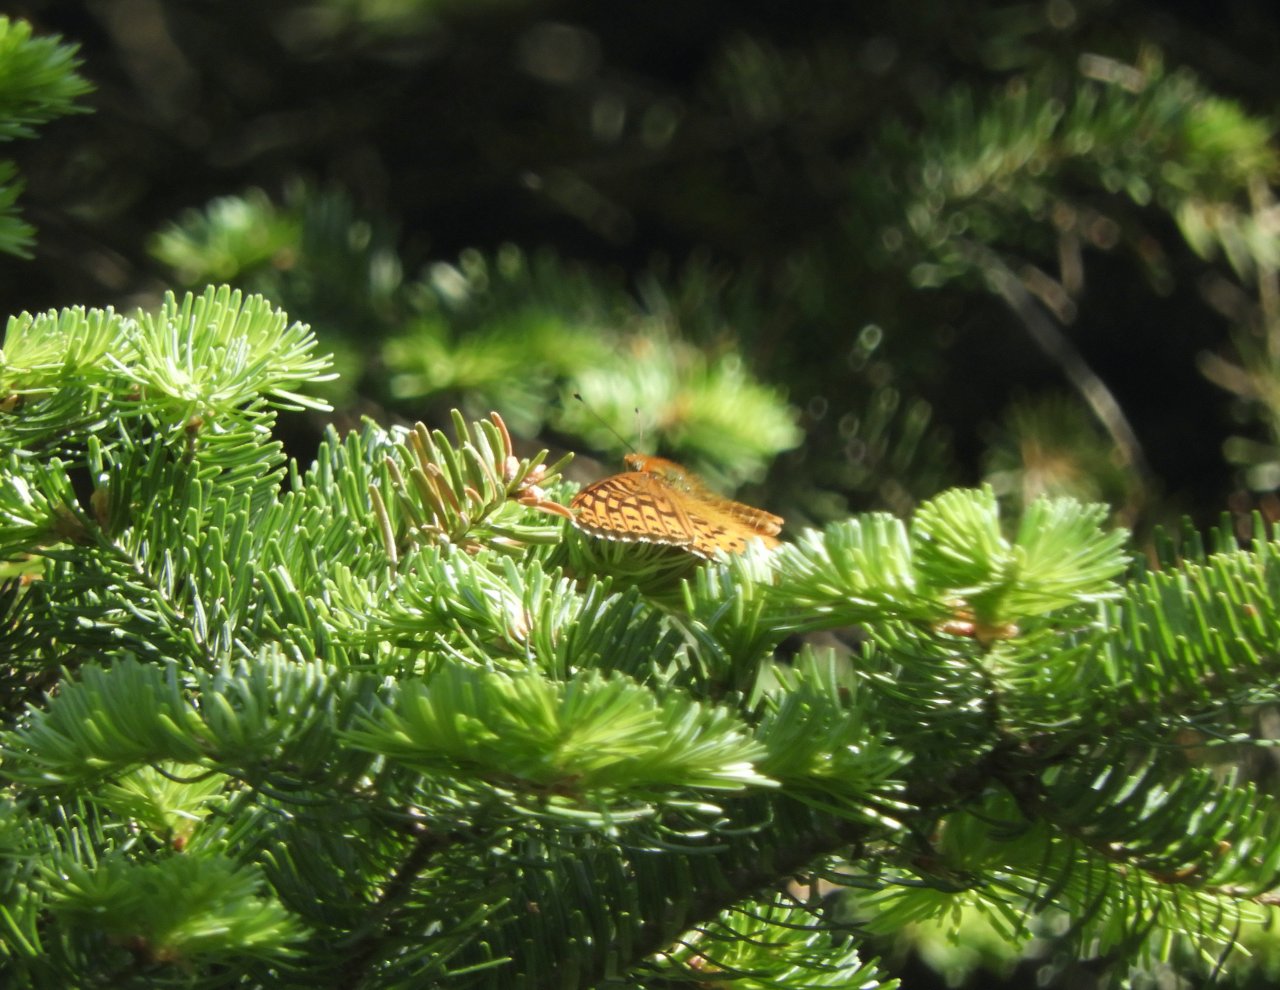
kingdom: Animalia
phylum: Arthropoda
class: Insecta
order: Lepidoptera
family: Nymphalidae
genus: Speyeria
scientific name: Speyeria atlantis
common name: Atlantis Fritillary
